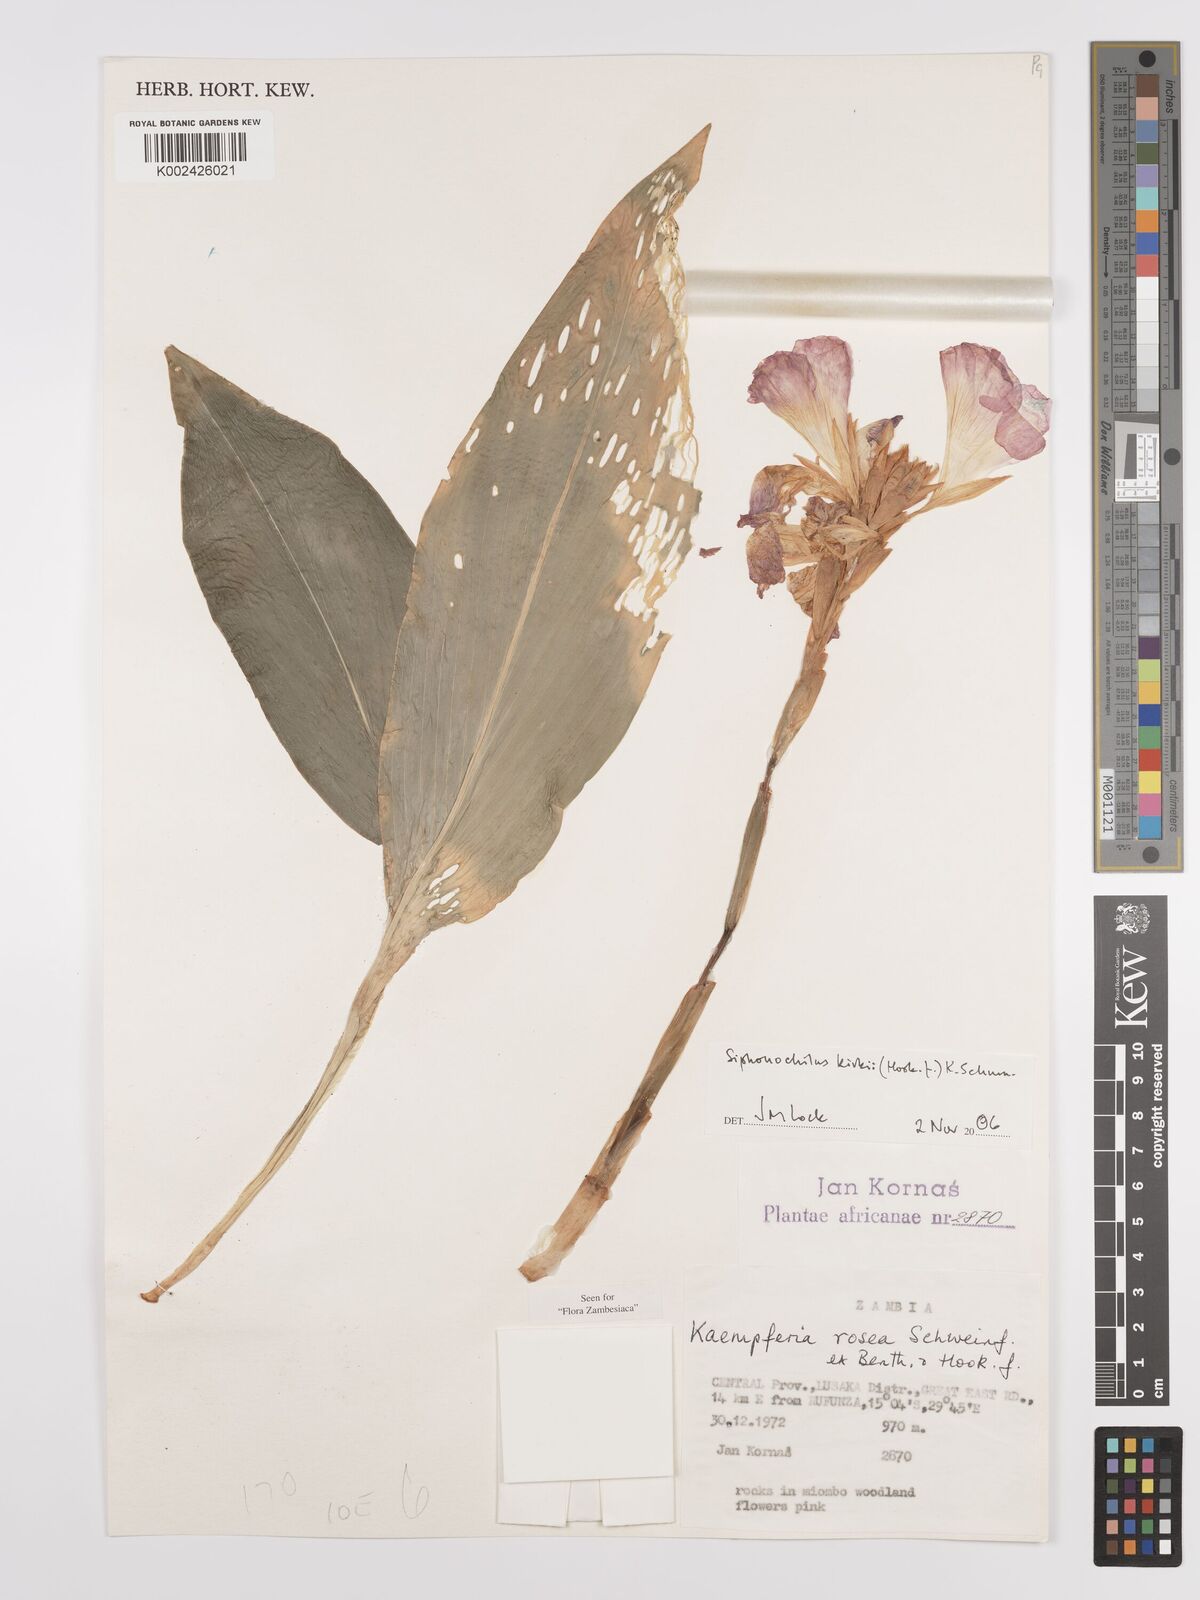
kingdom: Plantae
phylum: Tracheophyta
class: Liliopsida
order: Zingiberales
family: Zingiberaceae
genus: Siphonochilus
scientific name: Siphonochilus kirkii
